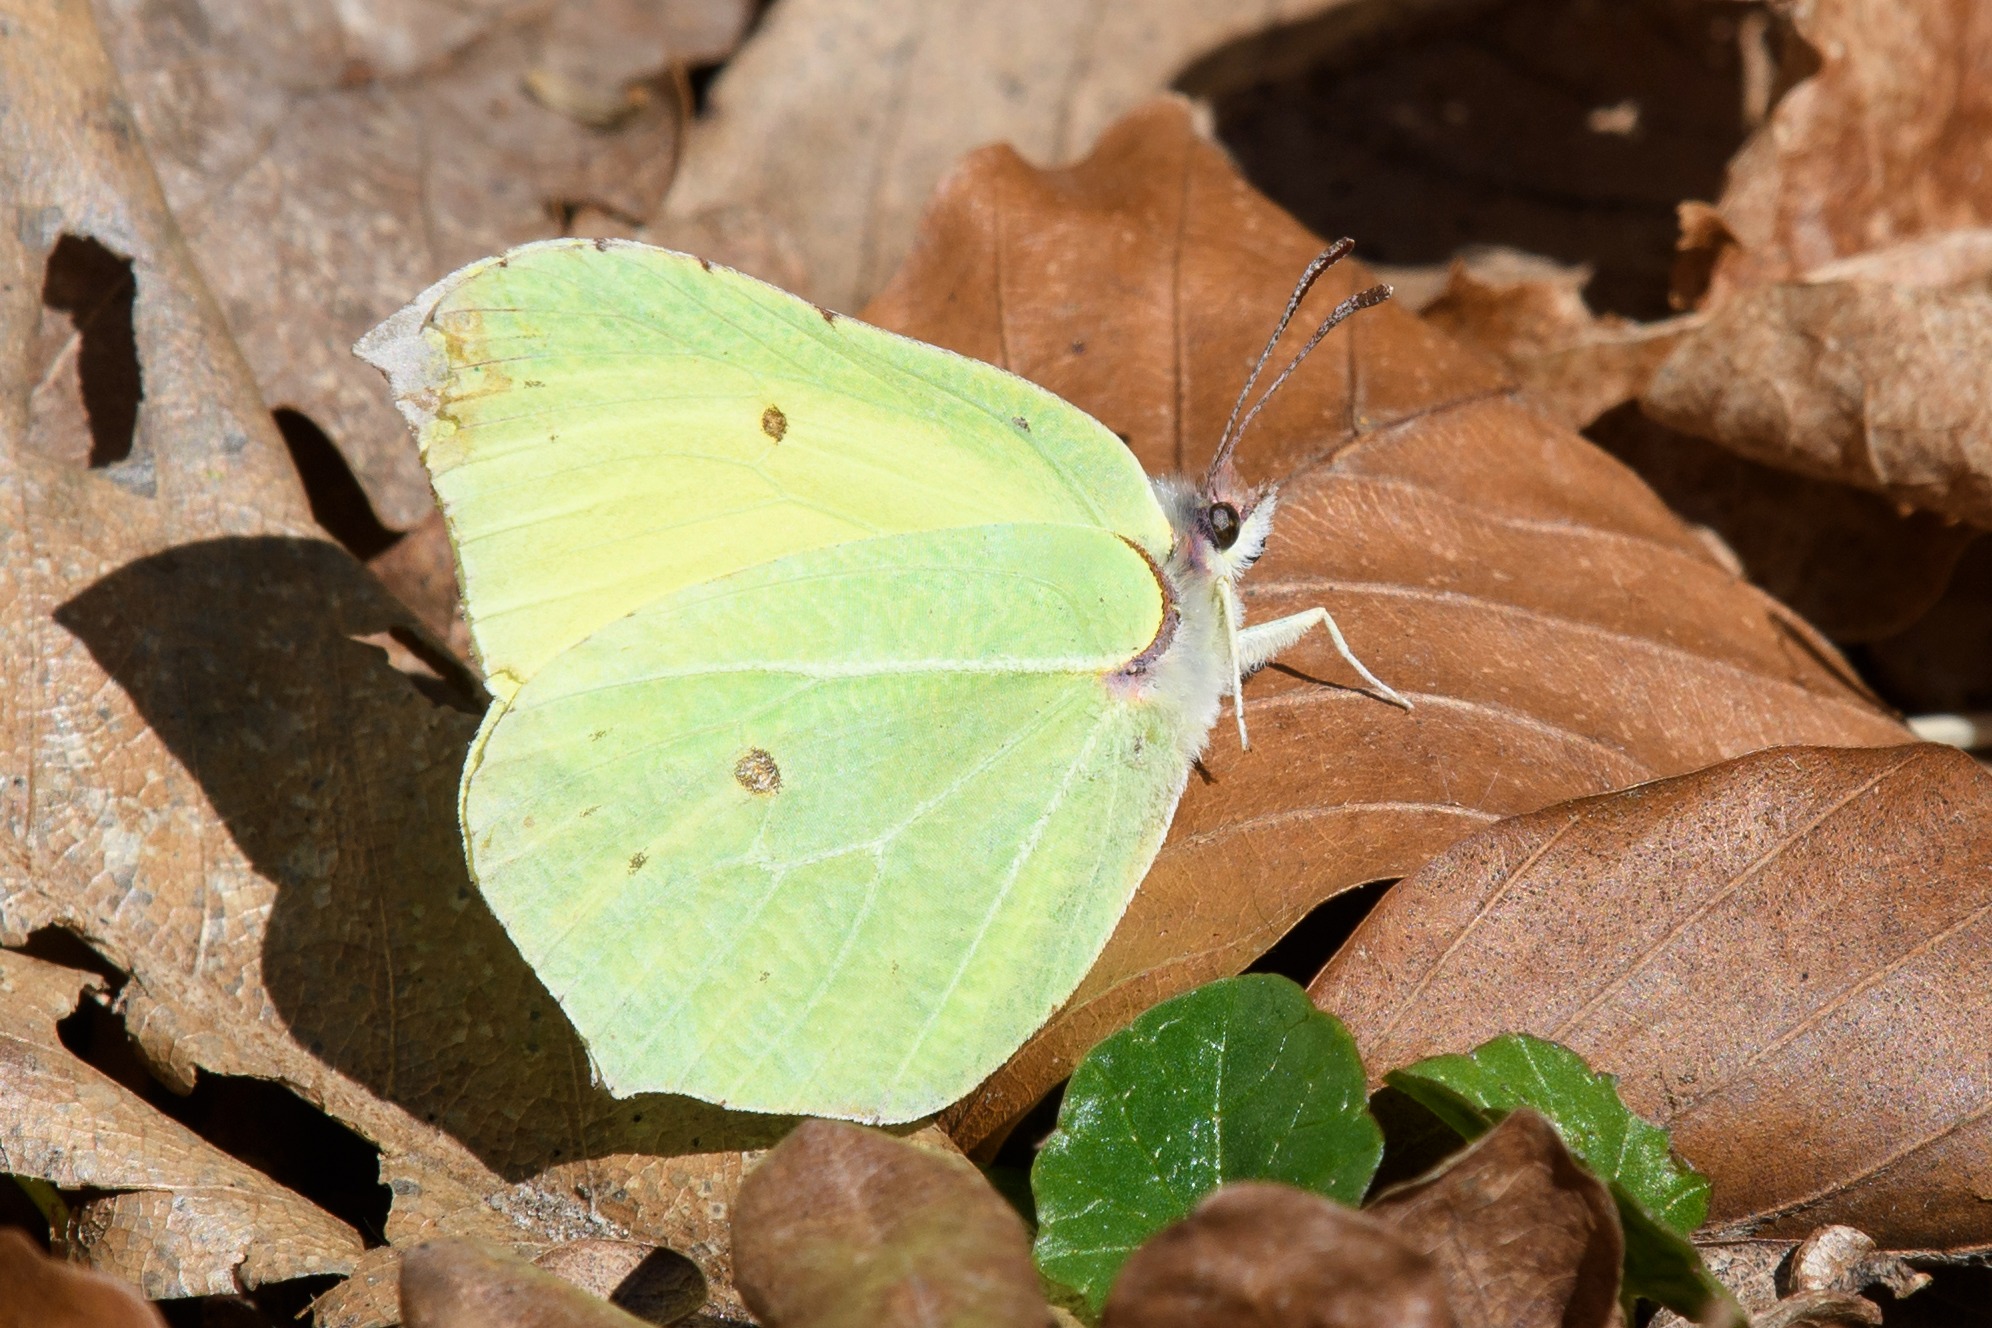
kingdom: Animalia
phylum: Arthropoda
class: Insecta
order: Lepidoptera
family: Pieridae
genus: Gonepteryx
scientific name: Gonepteryx rhamni
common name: Citronsommerfugl
